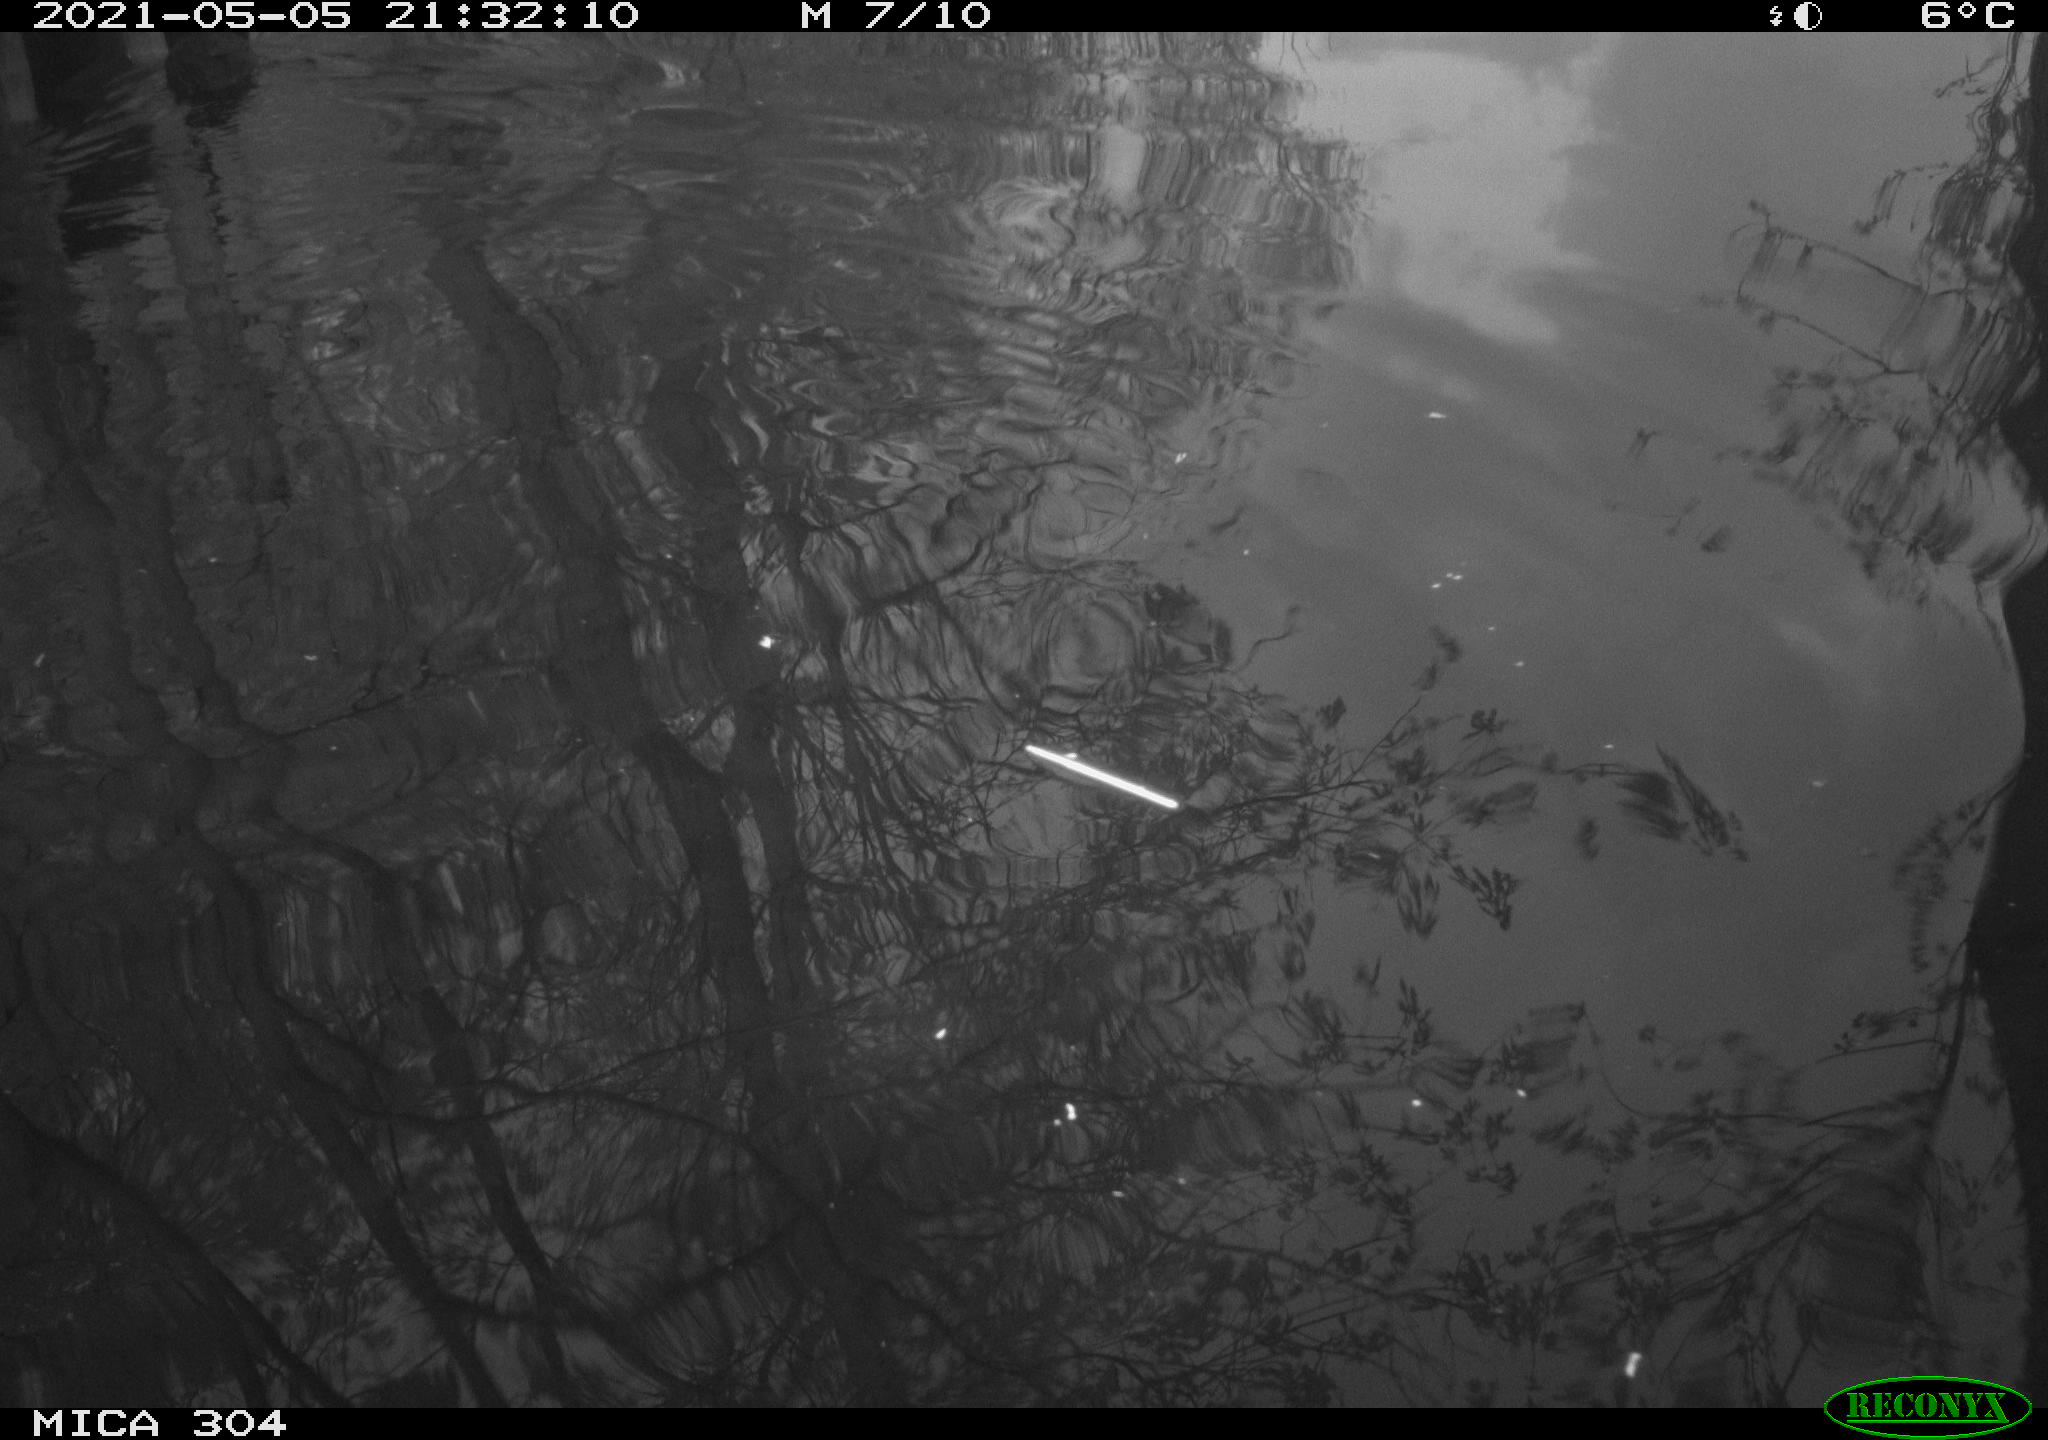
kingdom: Animalia
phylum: Chordata
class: Aves
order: Gruiformes
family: Rallidae
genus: Gallinula
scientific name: Gallinula chloropus
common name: Common moorhen
